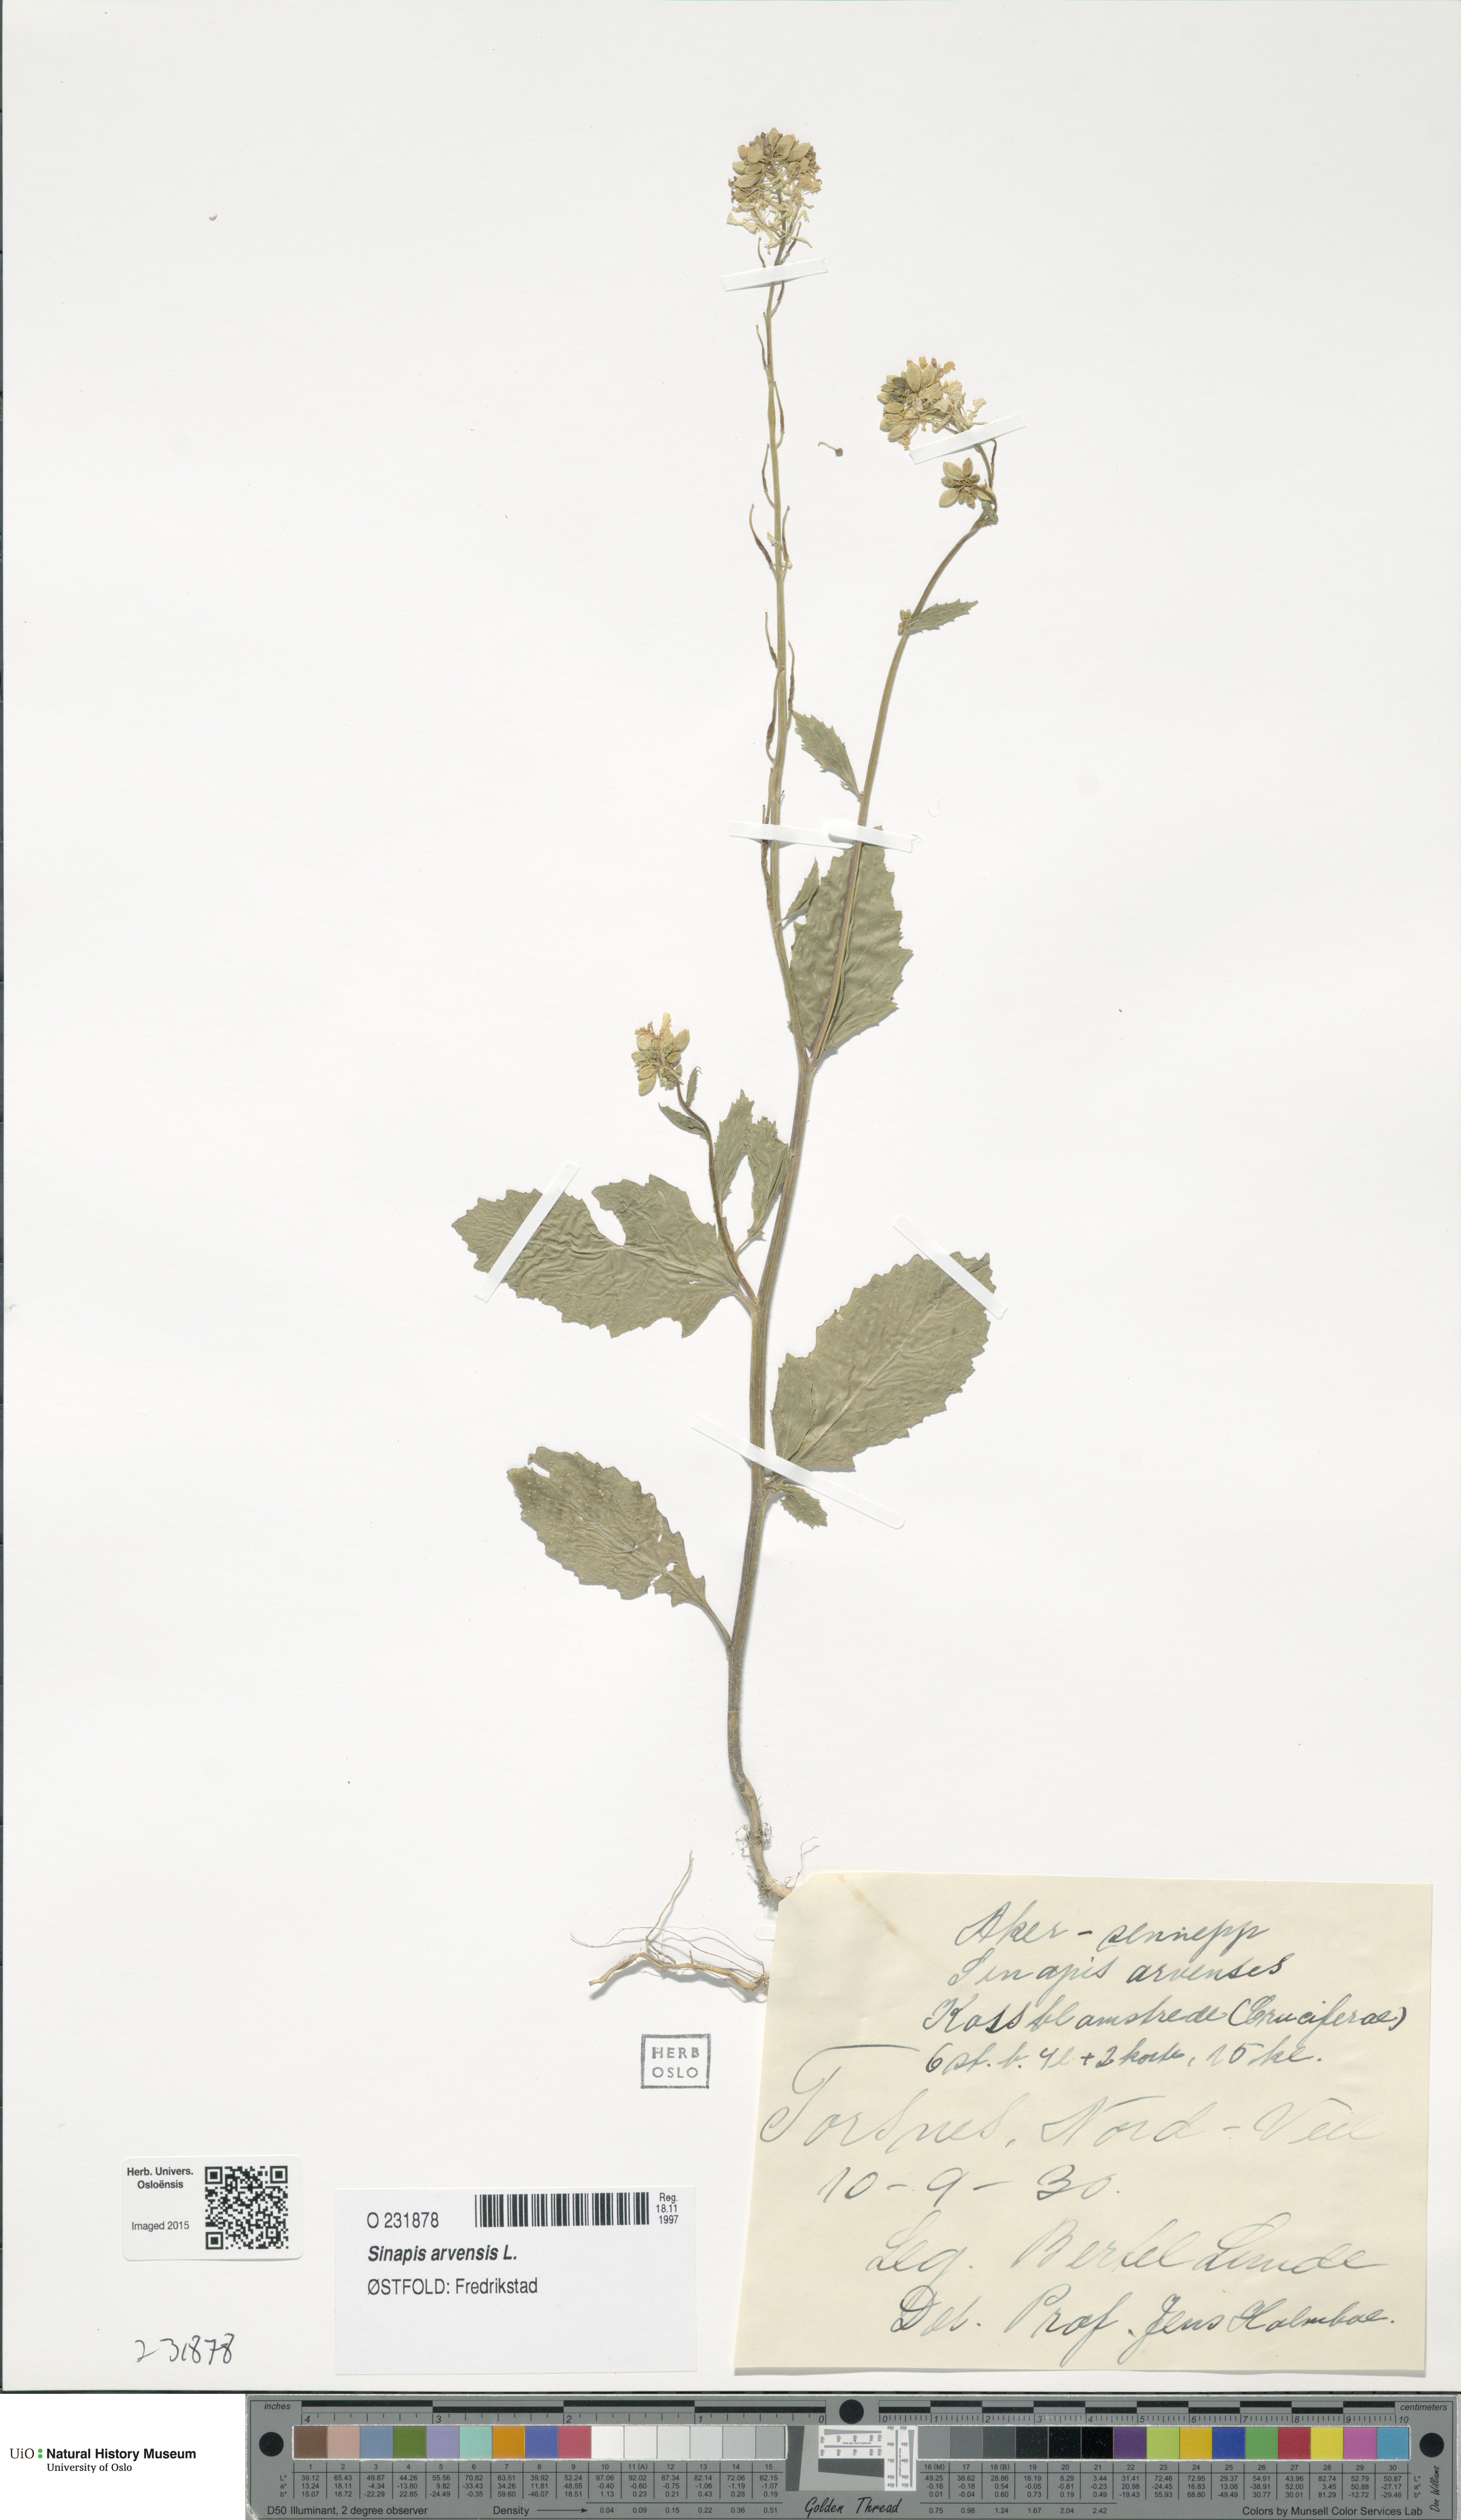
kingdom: Plantae
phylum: Tracheophyta
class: Magnoliopsida
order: Brassicales
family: Brassicaceae
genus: Sinapis
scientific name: Sinapis arvensis
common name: Charlock
